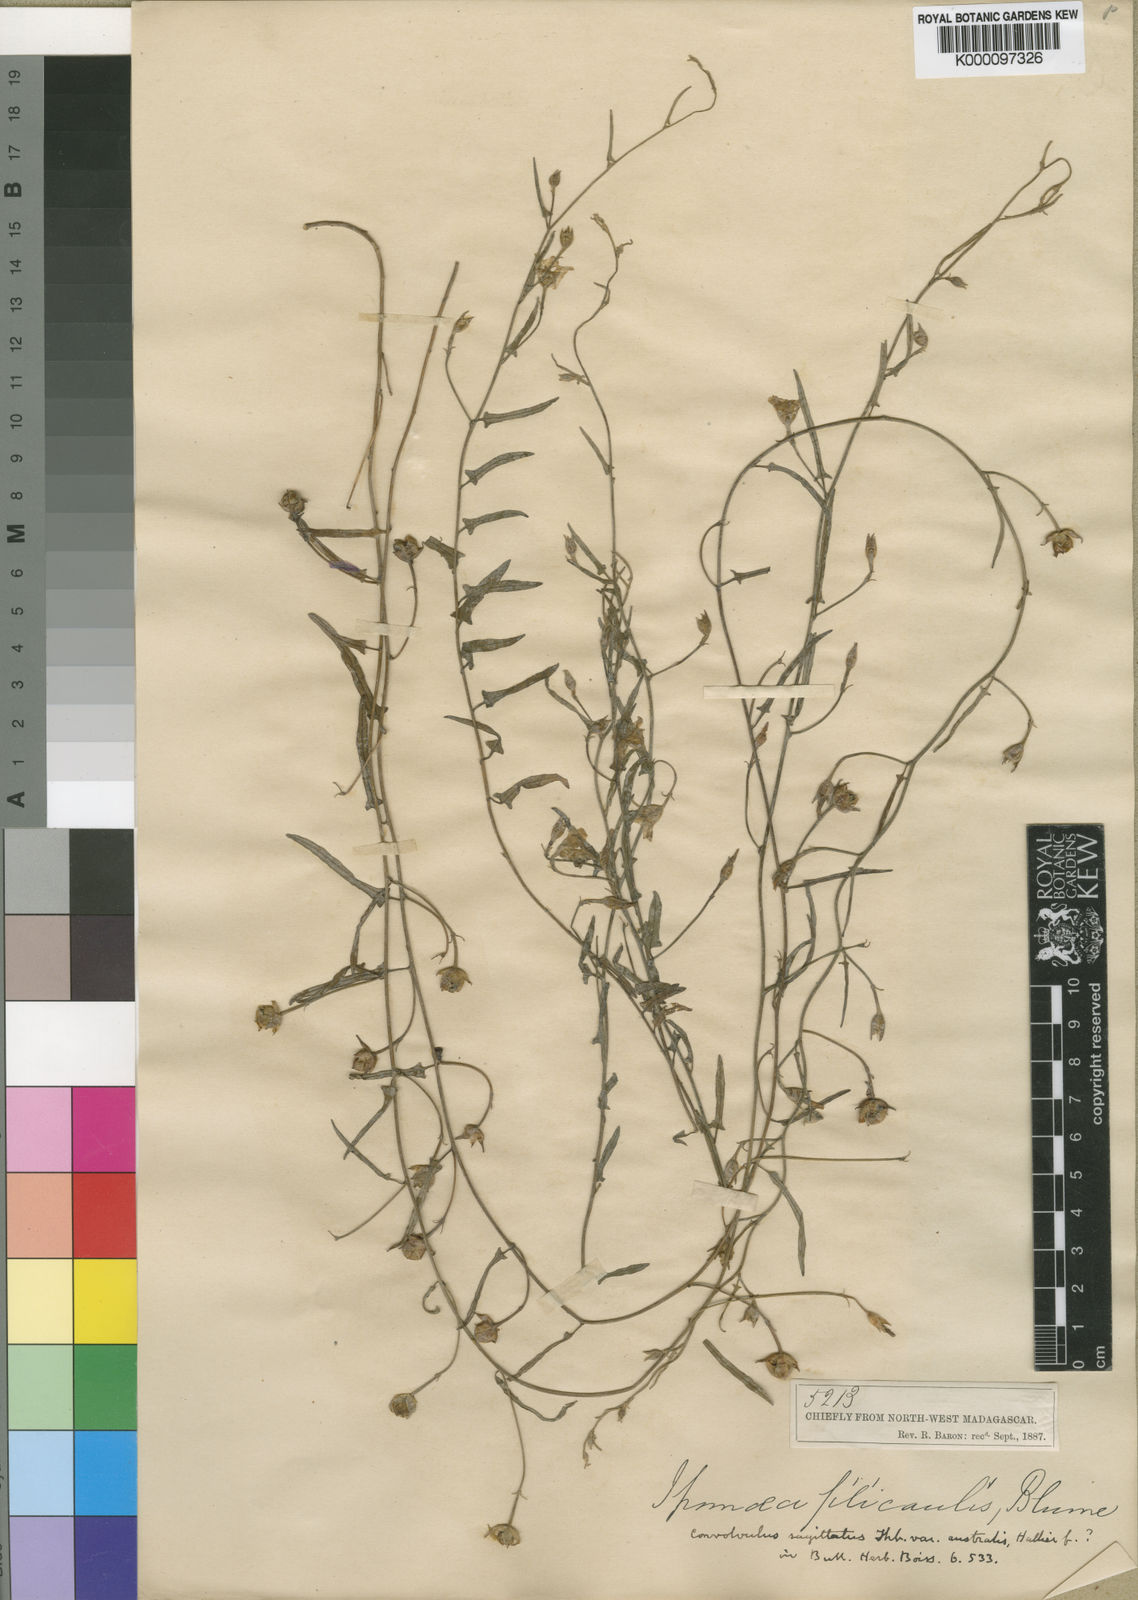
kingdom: Plantae
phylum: Tracheophyta
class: Magnoliopsida
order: Solanales
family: Convolvulaceae
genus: Convolvulus
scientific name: Convolvulus sagittatus
